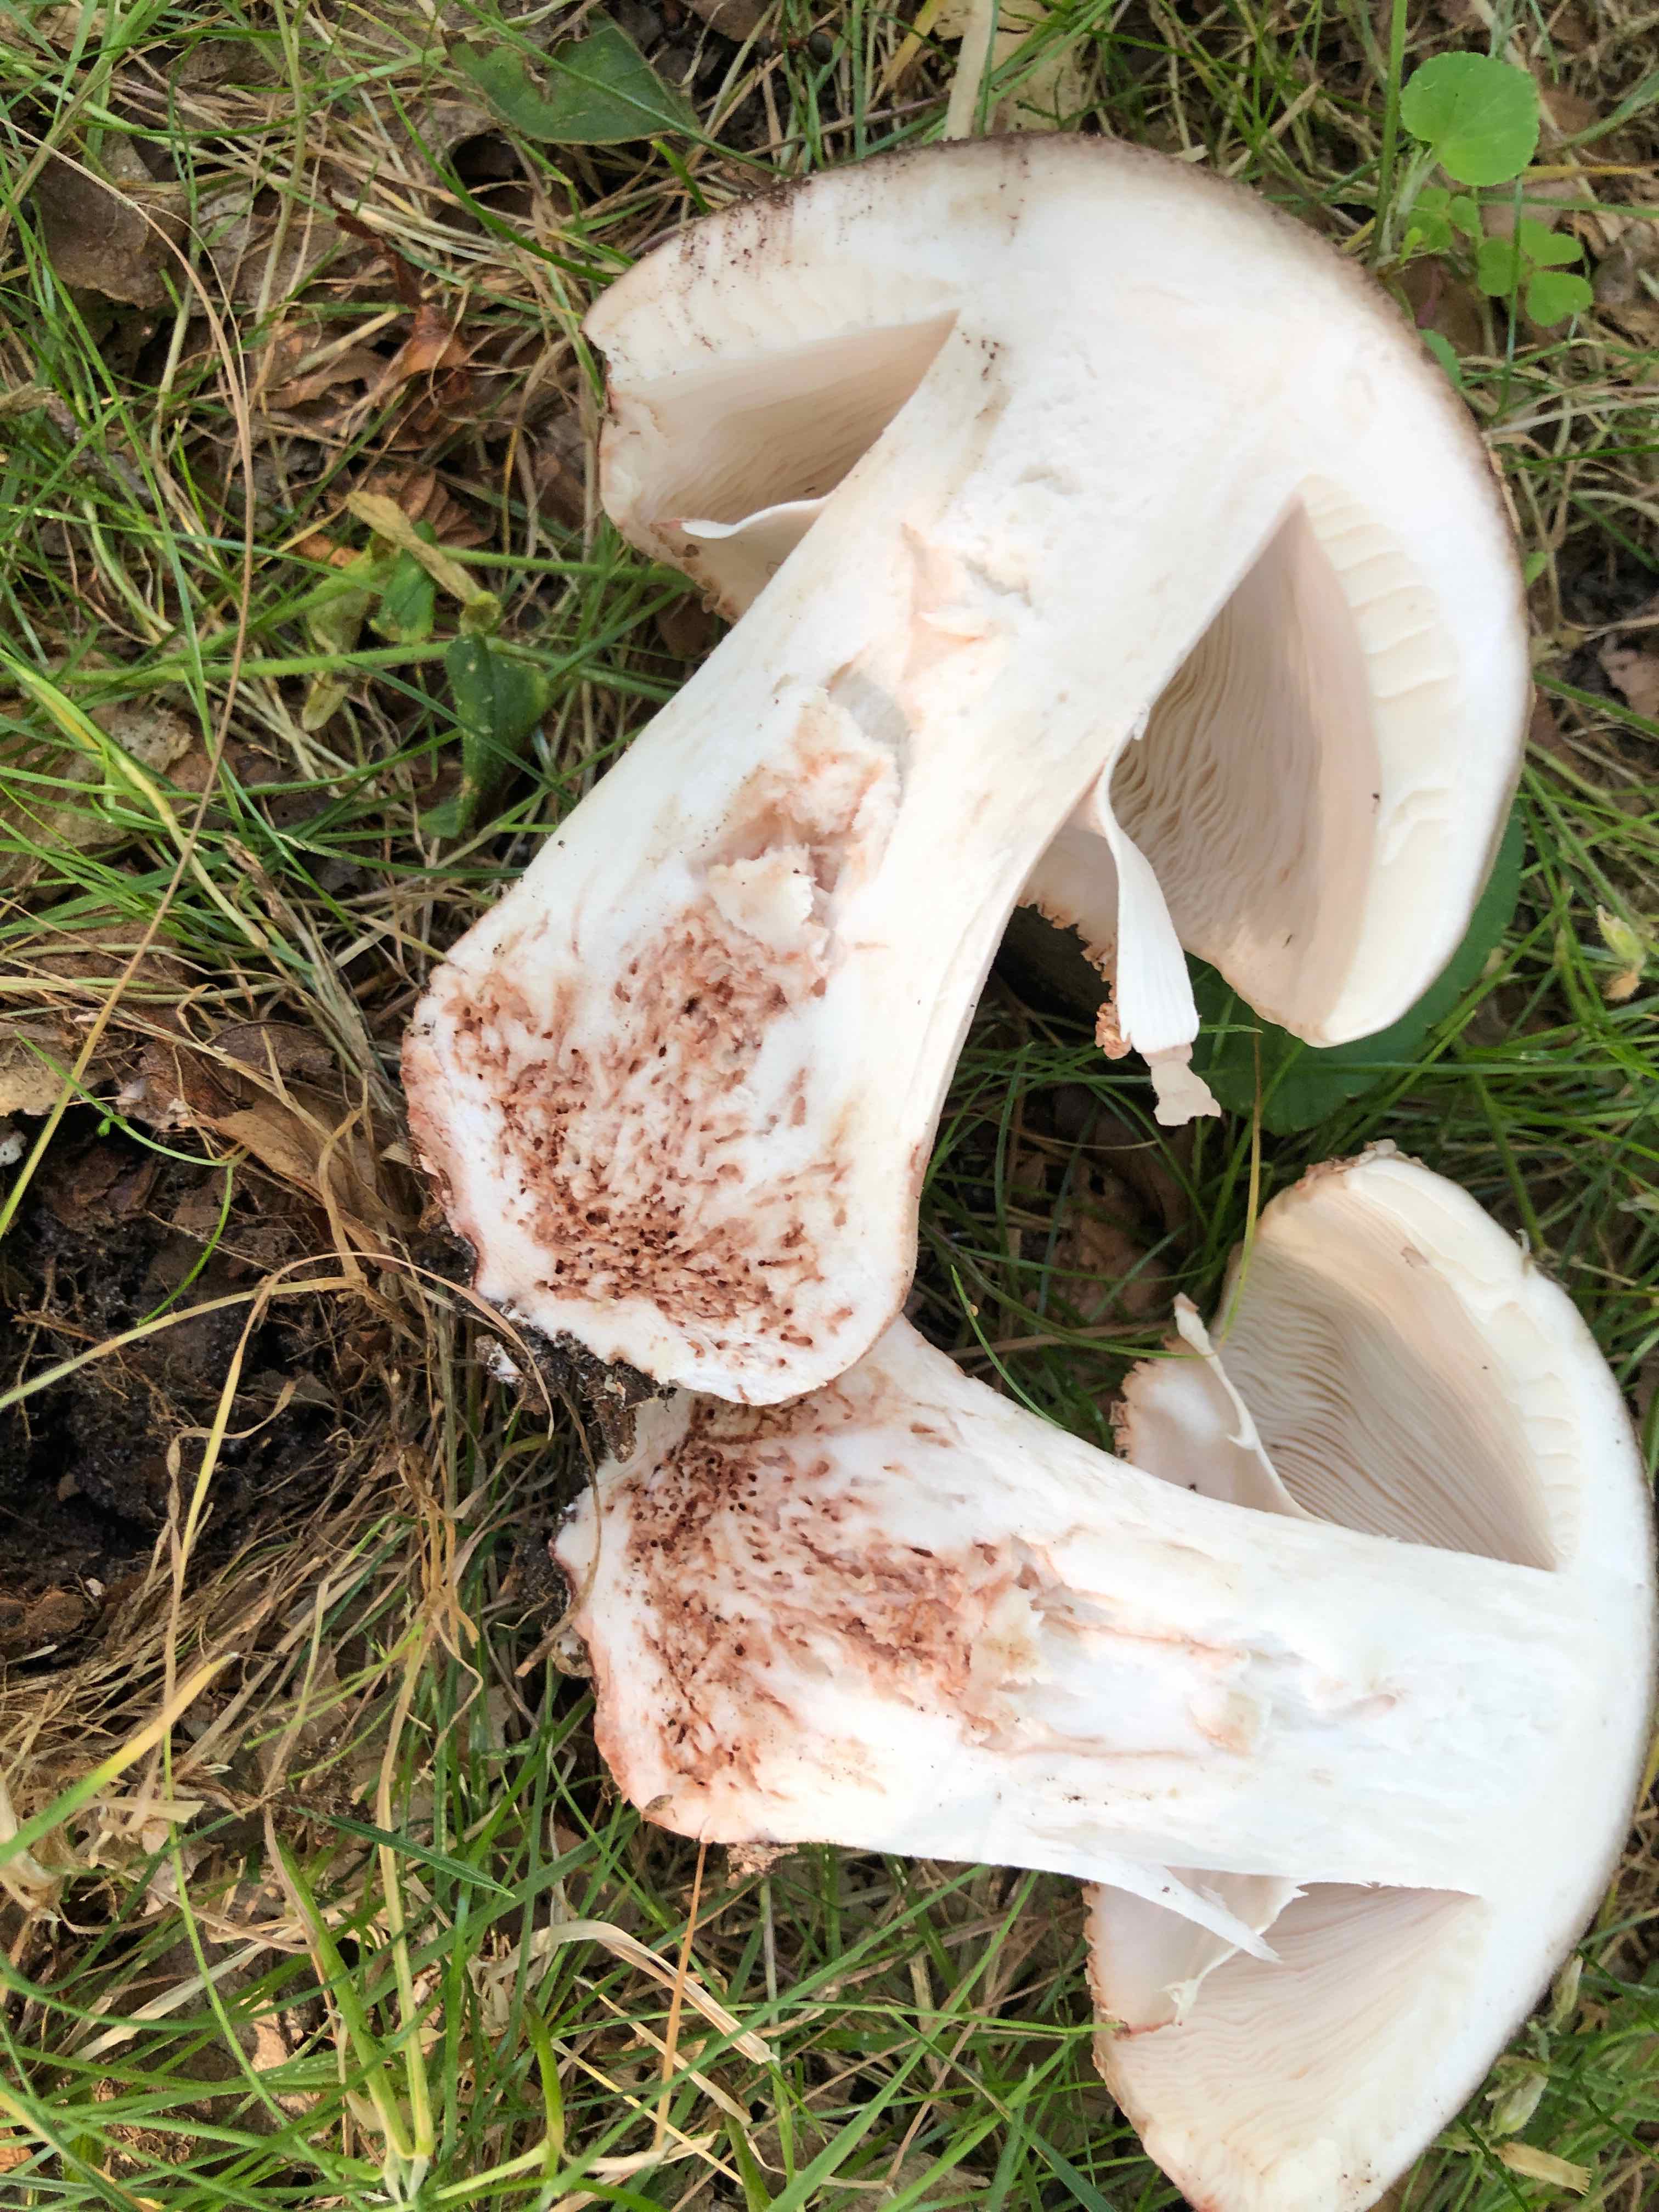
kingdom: Fungi
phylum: Basidiomycota
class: Agaricomycetes
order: Agaricales
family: Amanitaceae
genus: Amanita
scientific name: Amanita rubescens
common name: rødmende fluesvamp
